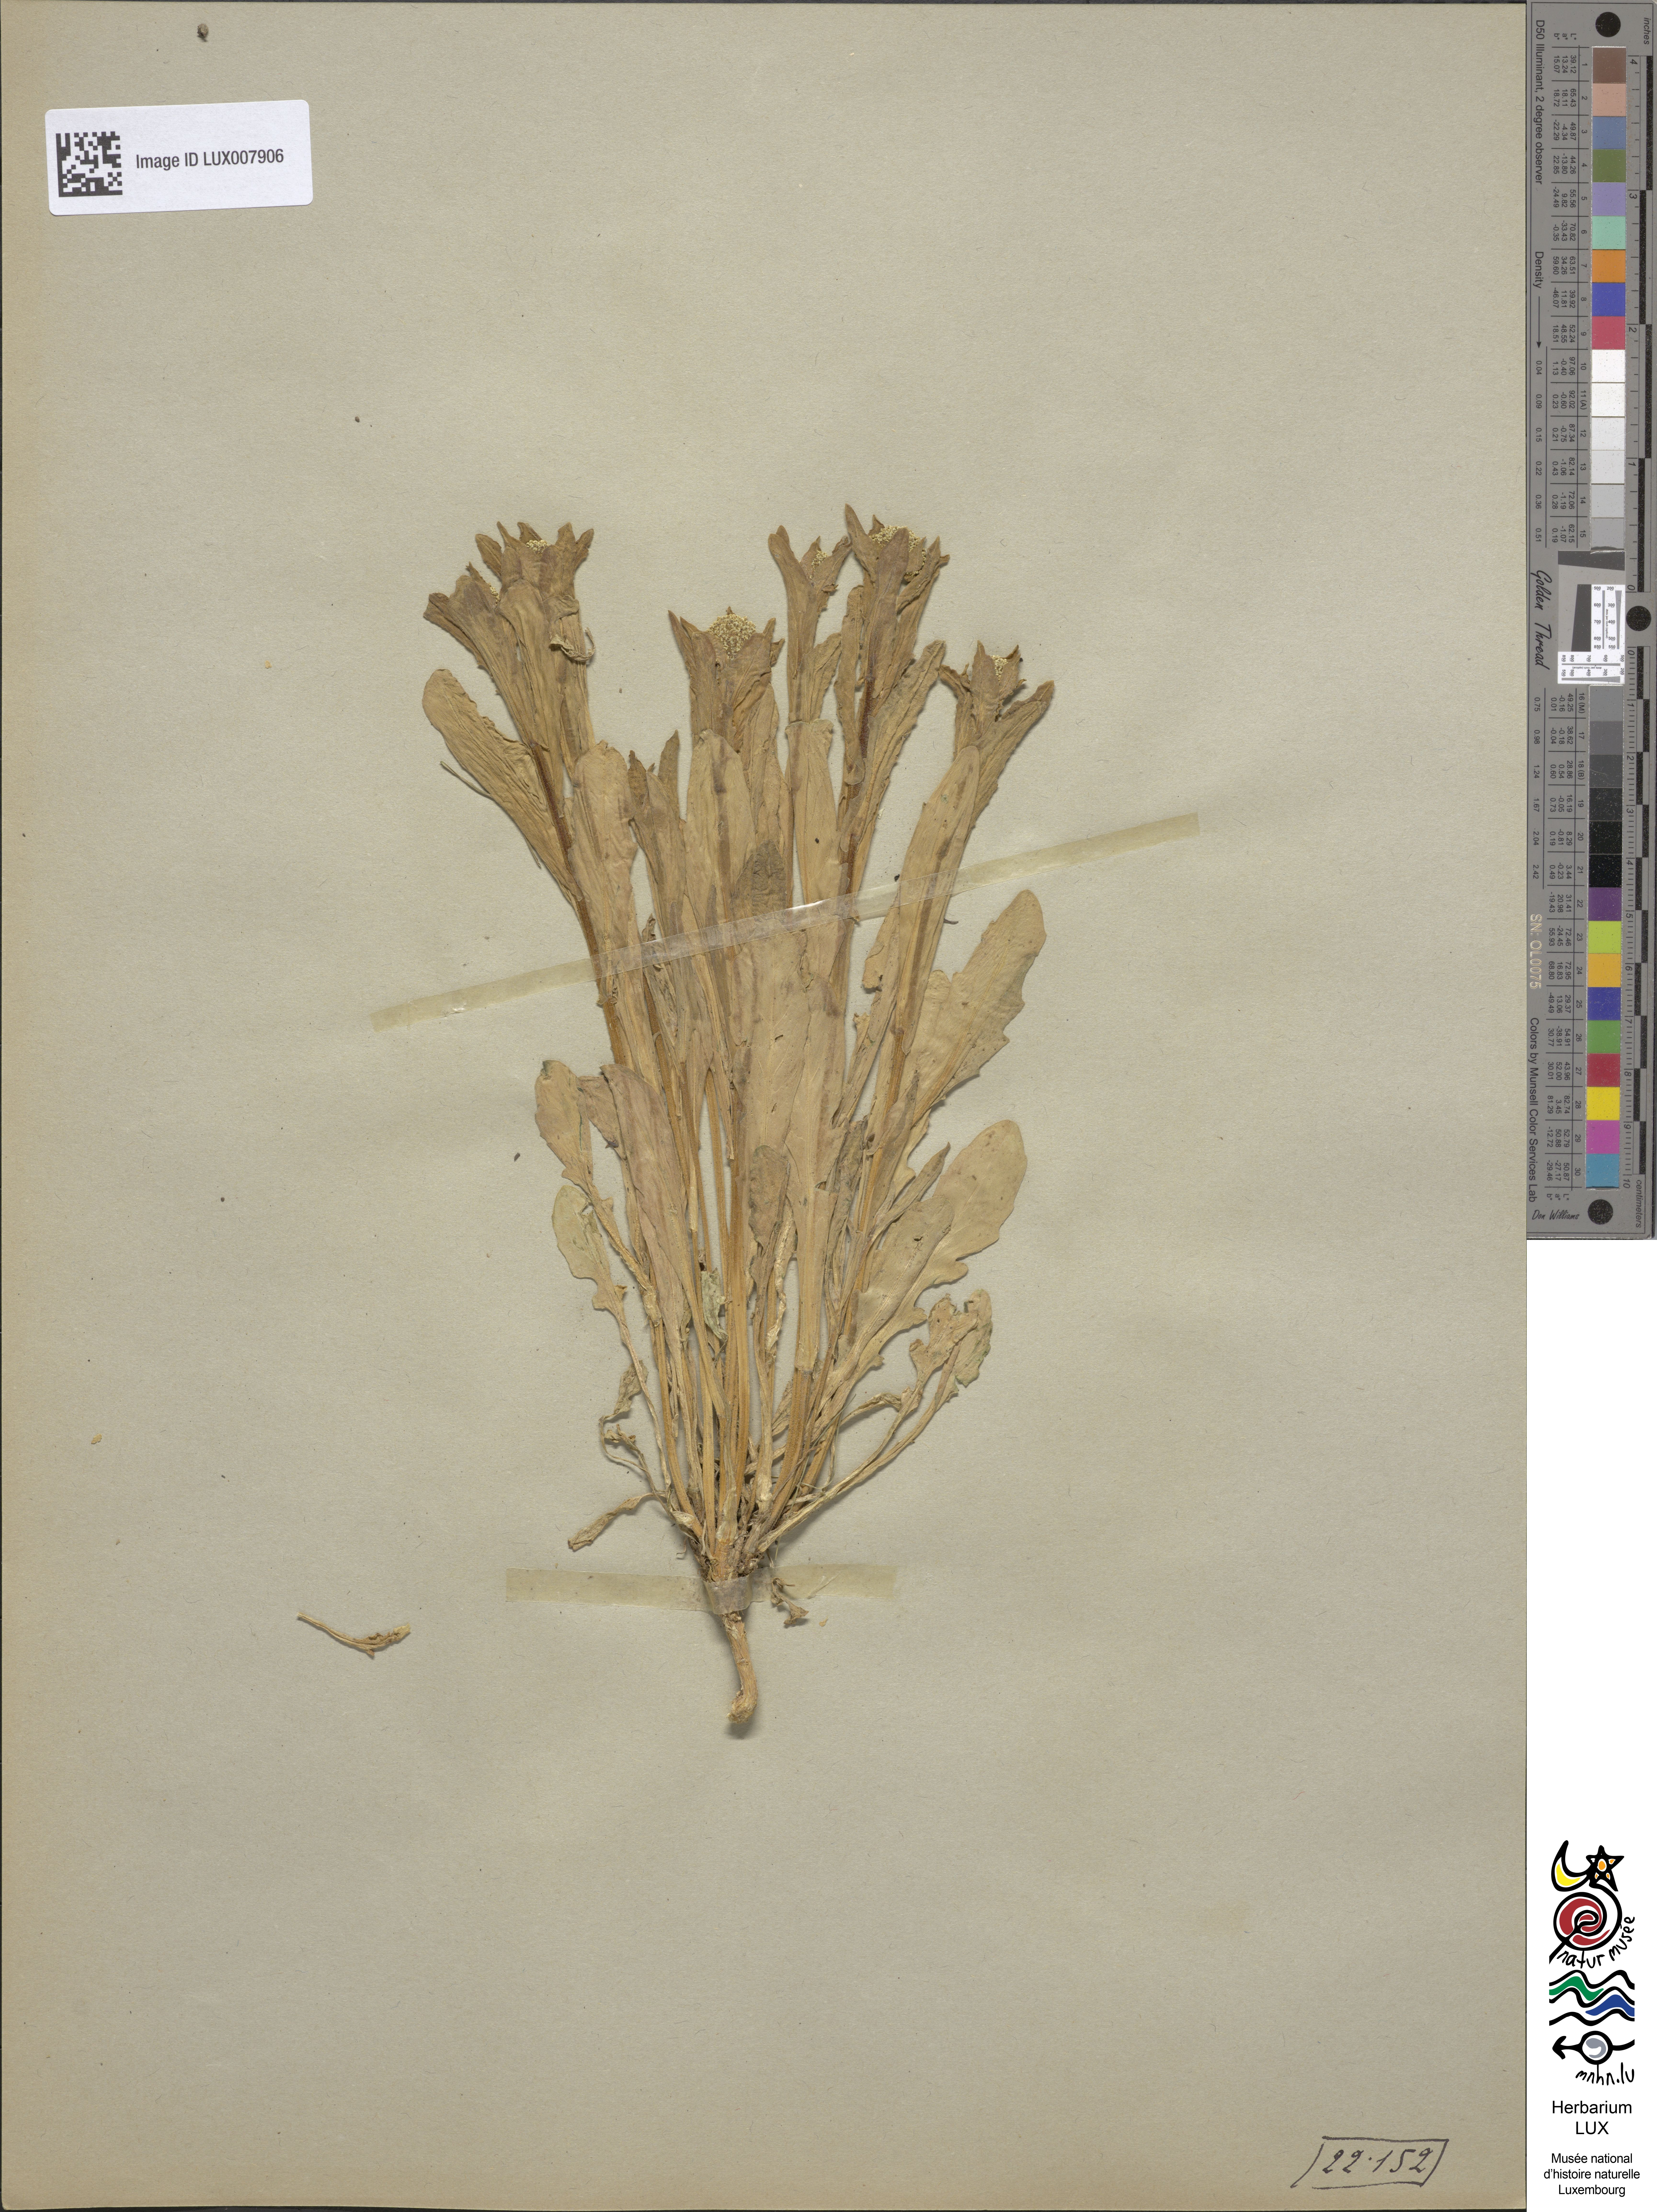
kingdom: Plantae
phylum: Tracheophyta
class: Magnoliopsida
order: Brassicales
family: Brassicaceae
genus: Lepidium
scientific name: Lepidium draba
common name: Hoary cress
